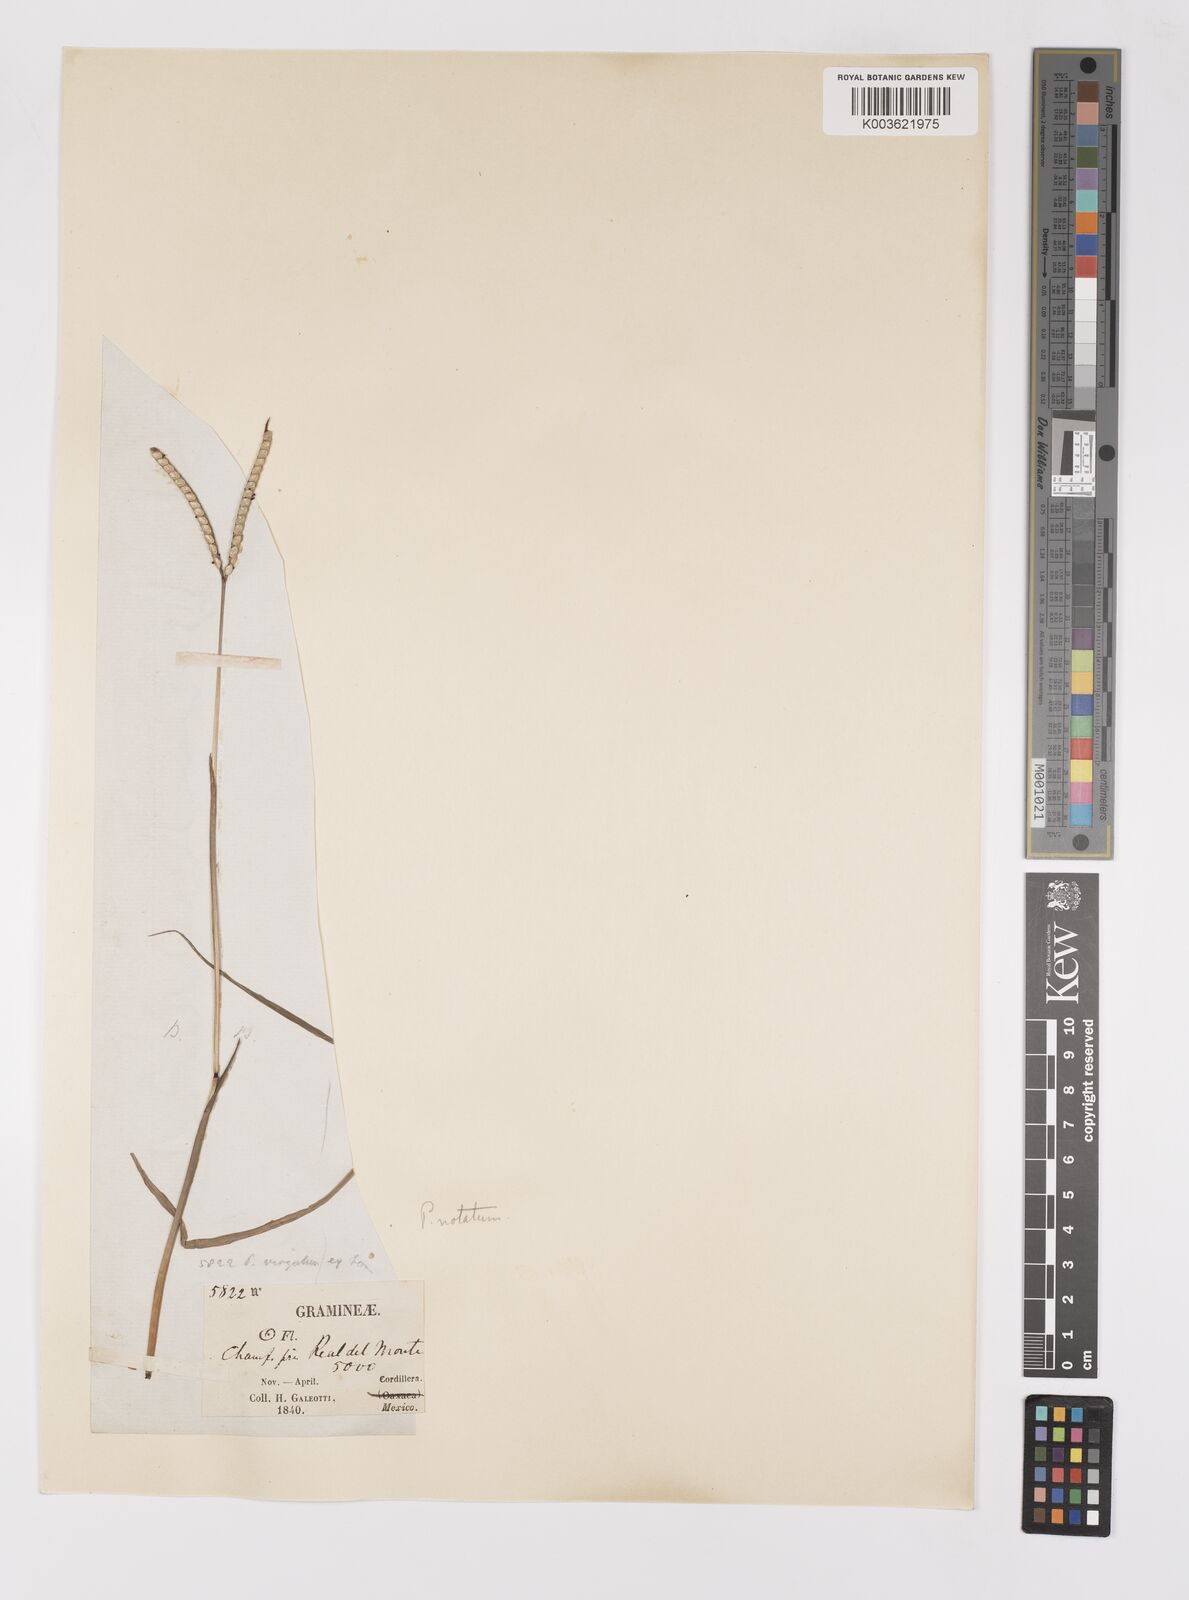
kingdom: Plantae
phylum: Tracheophyta
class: Liliopsida
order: Poales
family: Poaceae
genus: Paspalum
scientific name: Paspalum notatum
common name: Bahiagrass
